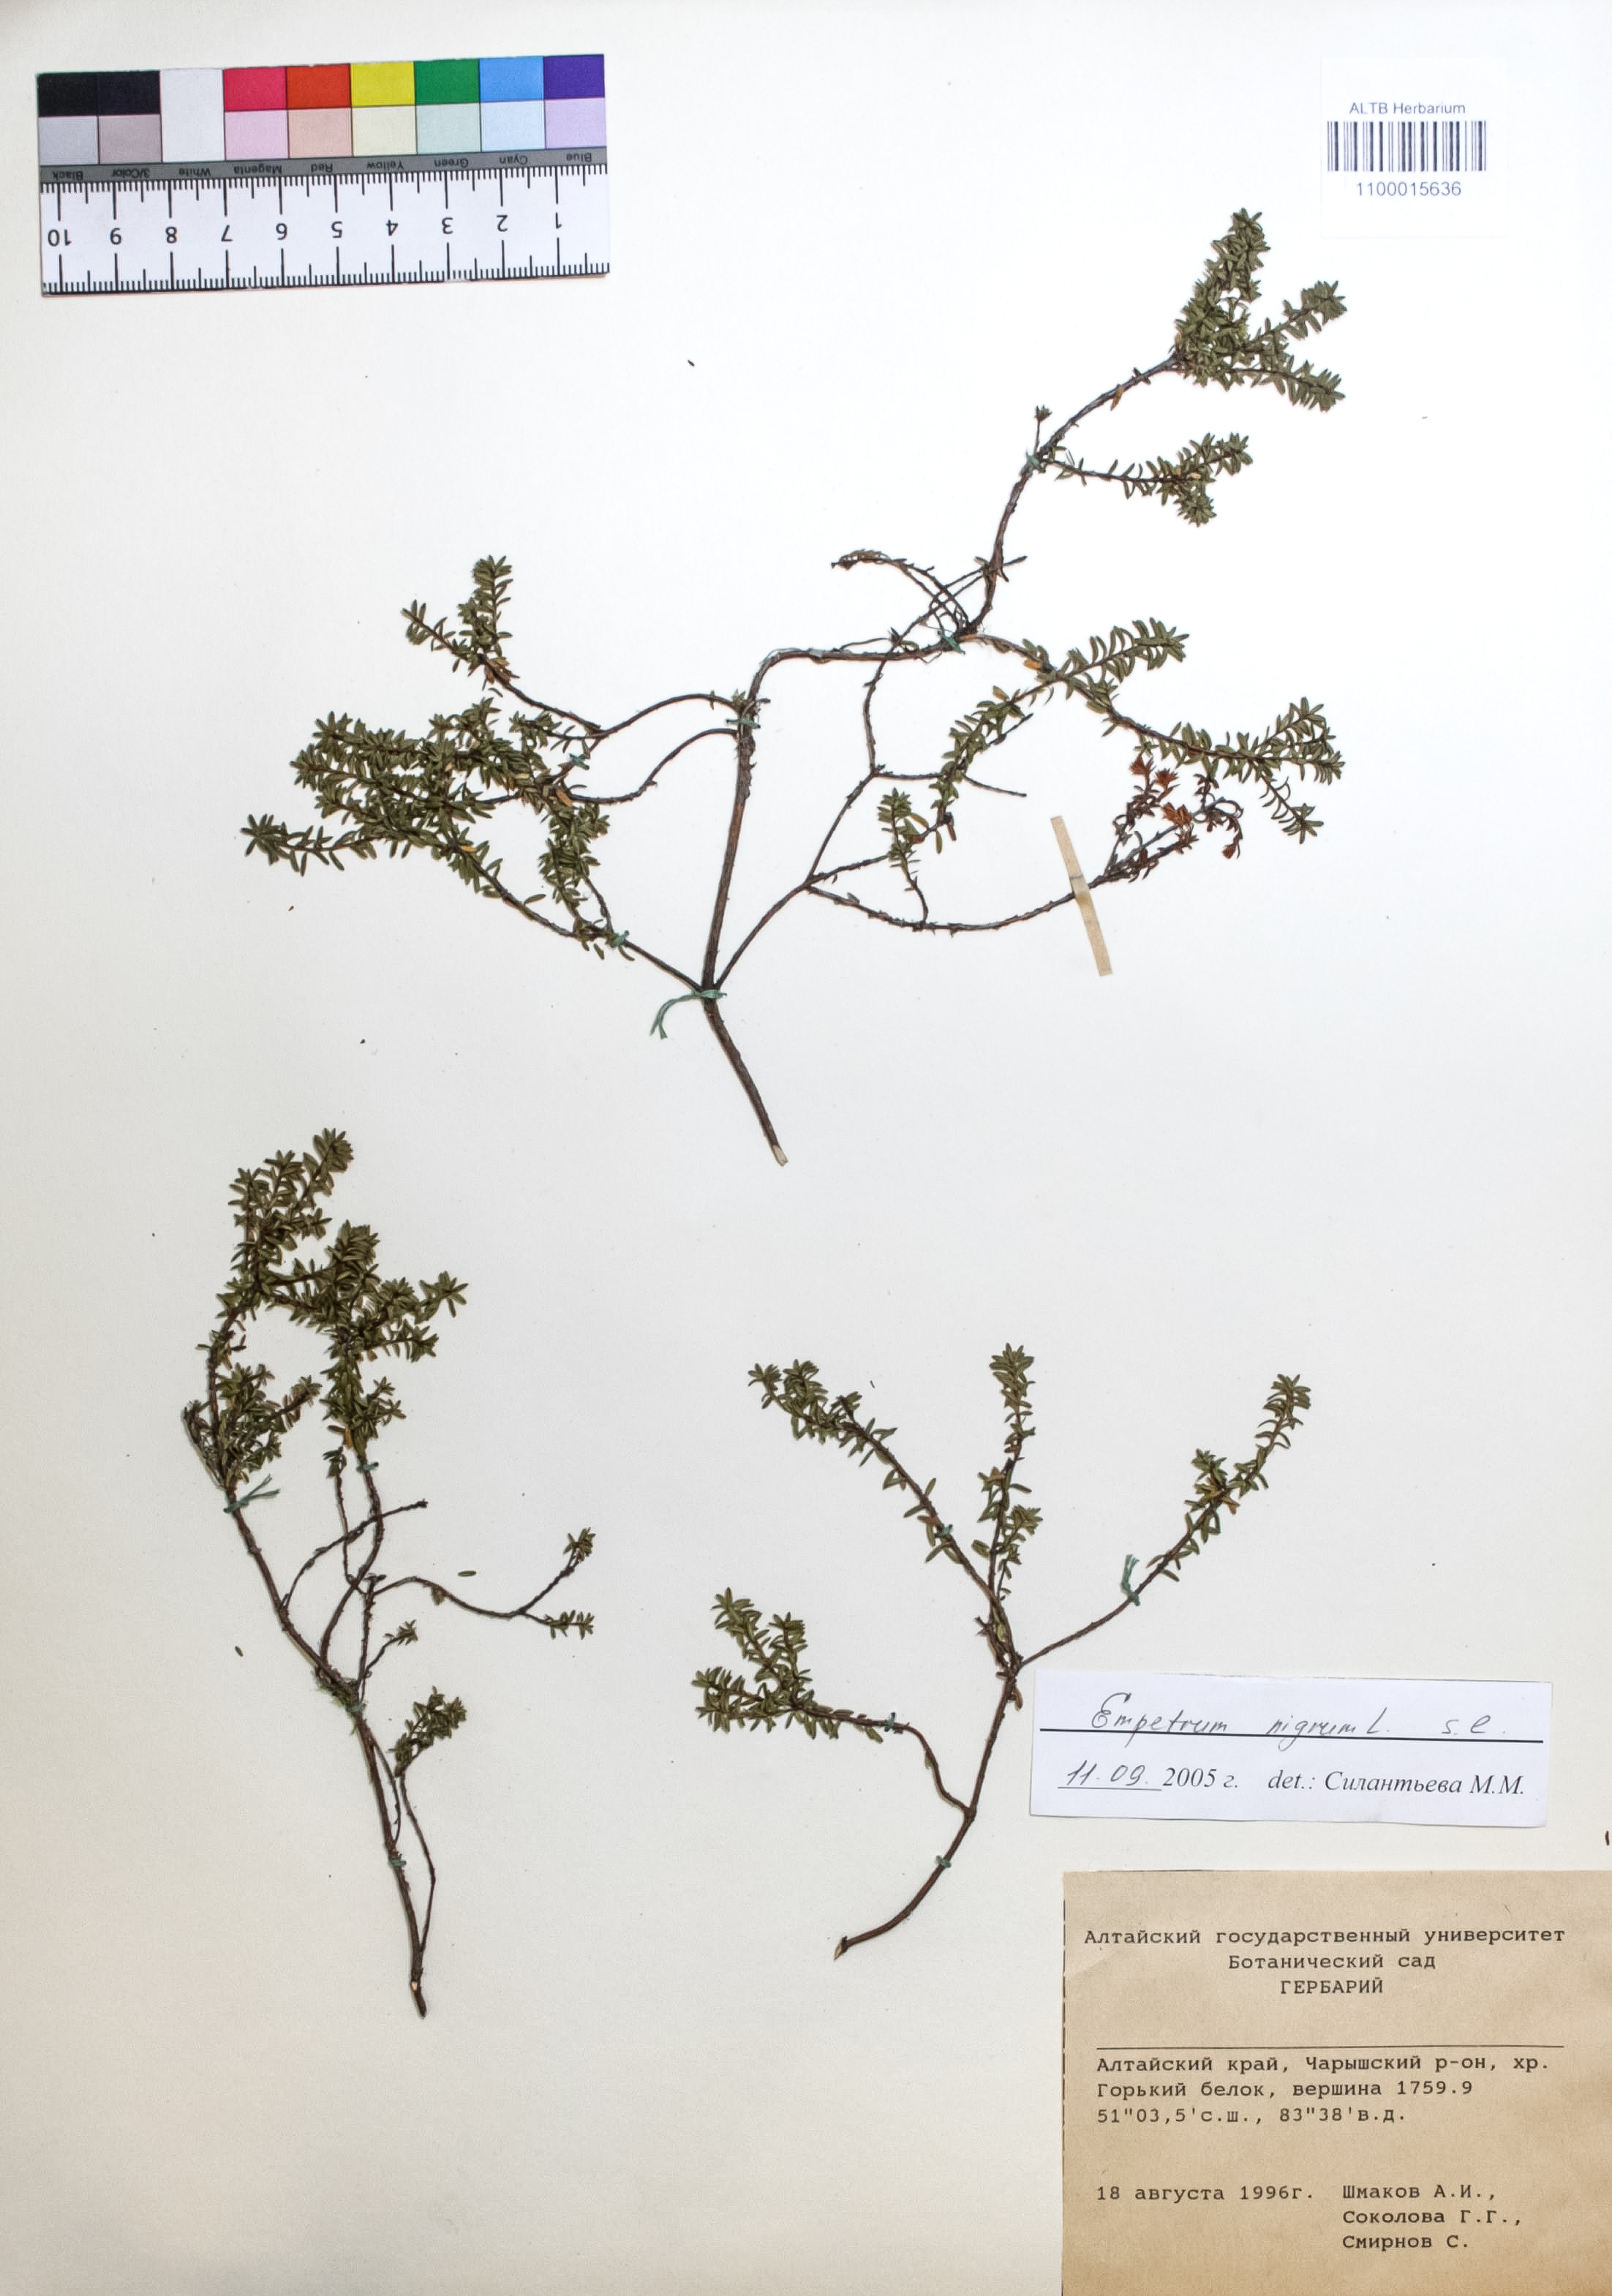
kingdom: Plantae
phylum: Tracheophyta
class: Magnoliopsida
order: Ericales
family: Ericaceae
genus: Empetrum
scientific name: Empetrum nigrum
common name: Black crowberry
